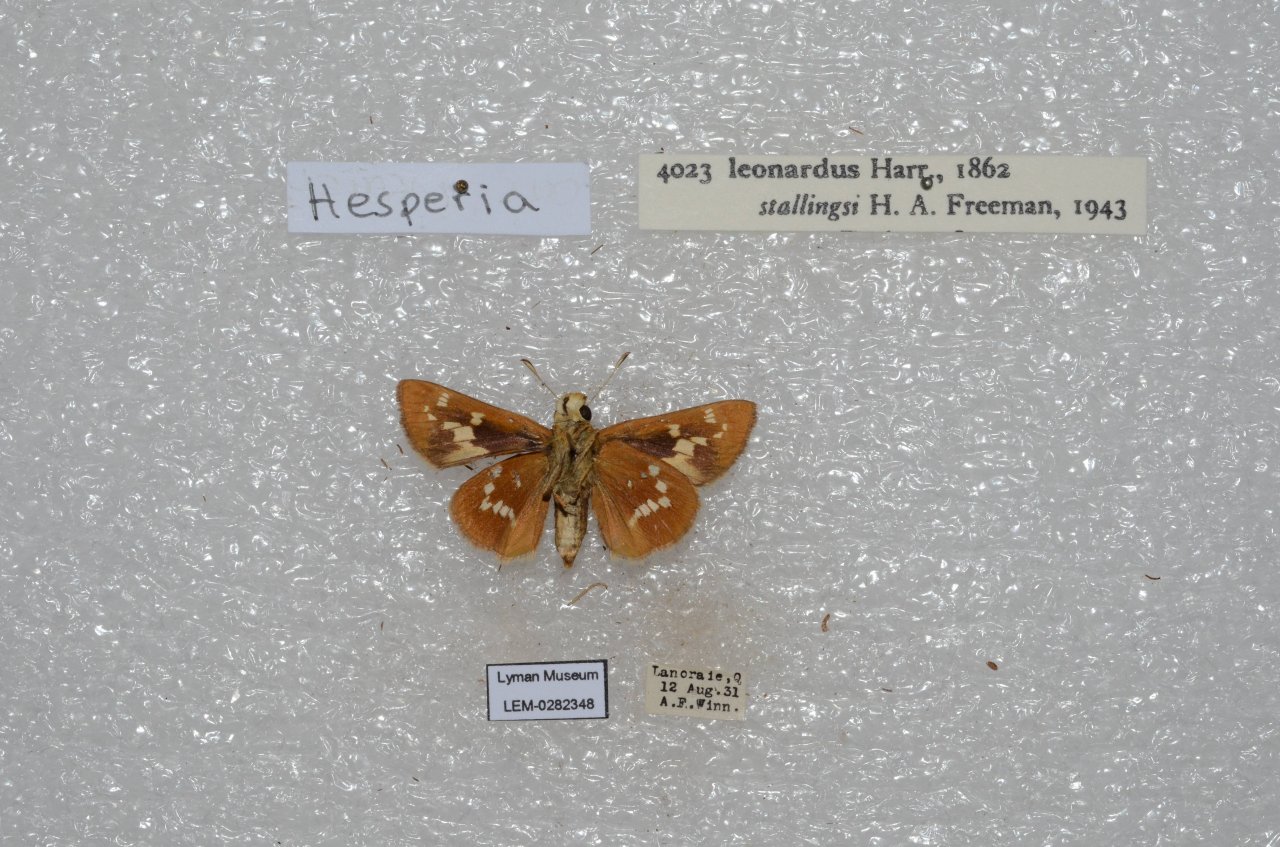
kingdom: Animalia
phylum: Arthropoda
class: Insecta
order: Lepidoptera
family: Hesperiidae
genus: Hesperia
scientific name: Hesperia leonardus
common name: Leonard's Skipper
